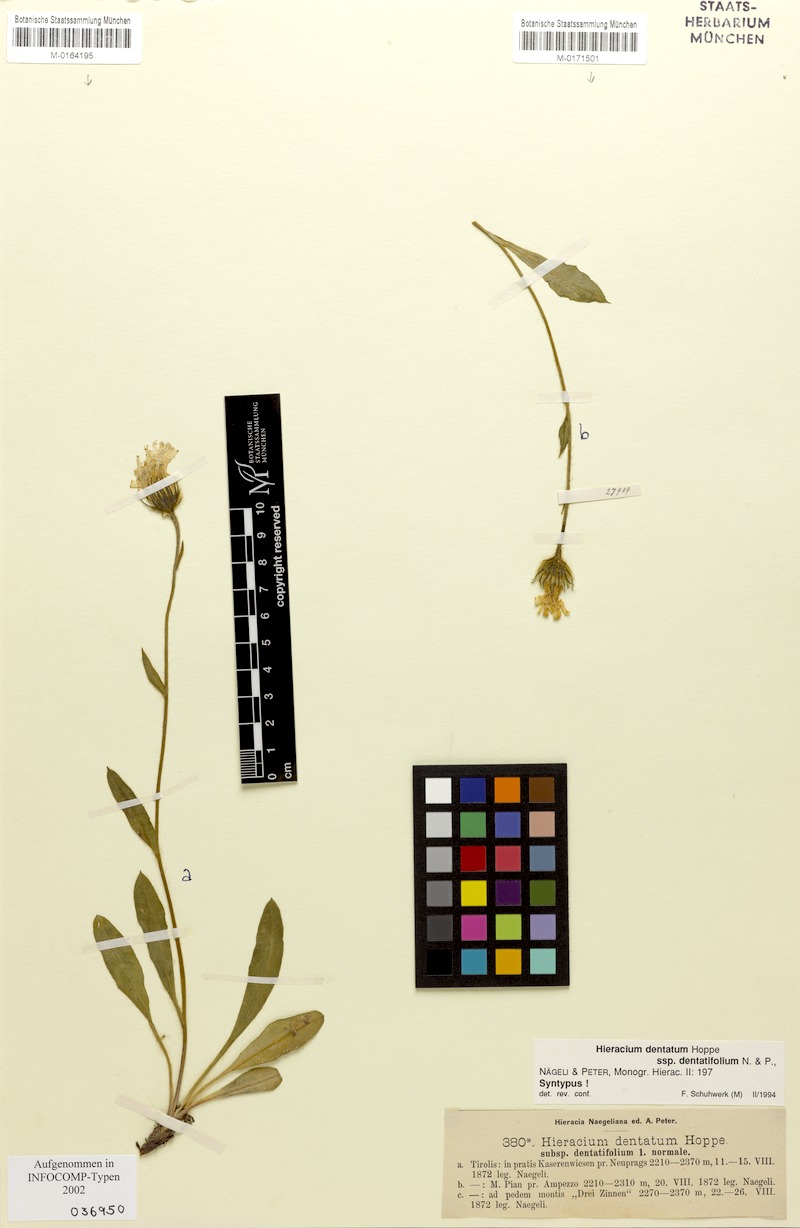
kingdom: Plantae
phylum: Tracheophyta
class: Magnoliopsida
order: Asterales
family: Asteraceae
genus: Hieracium
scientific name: Hieracium dentatum
